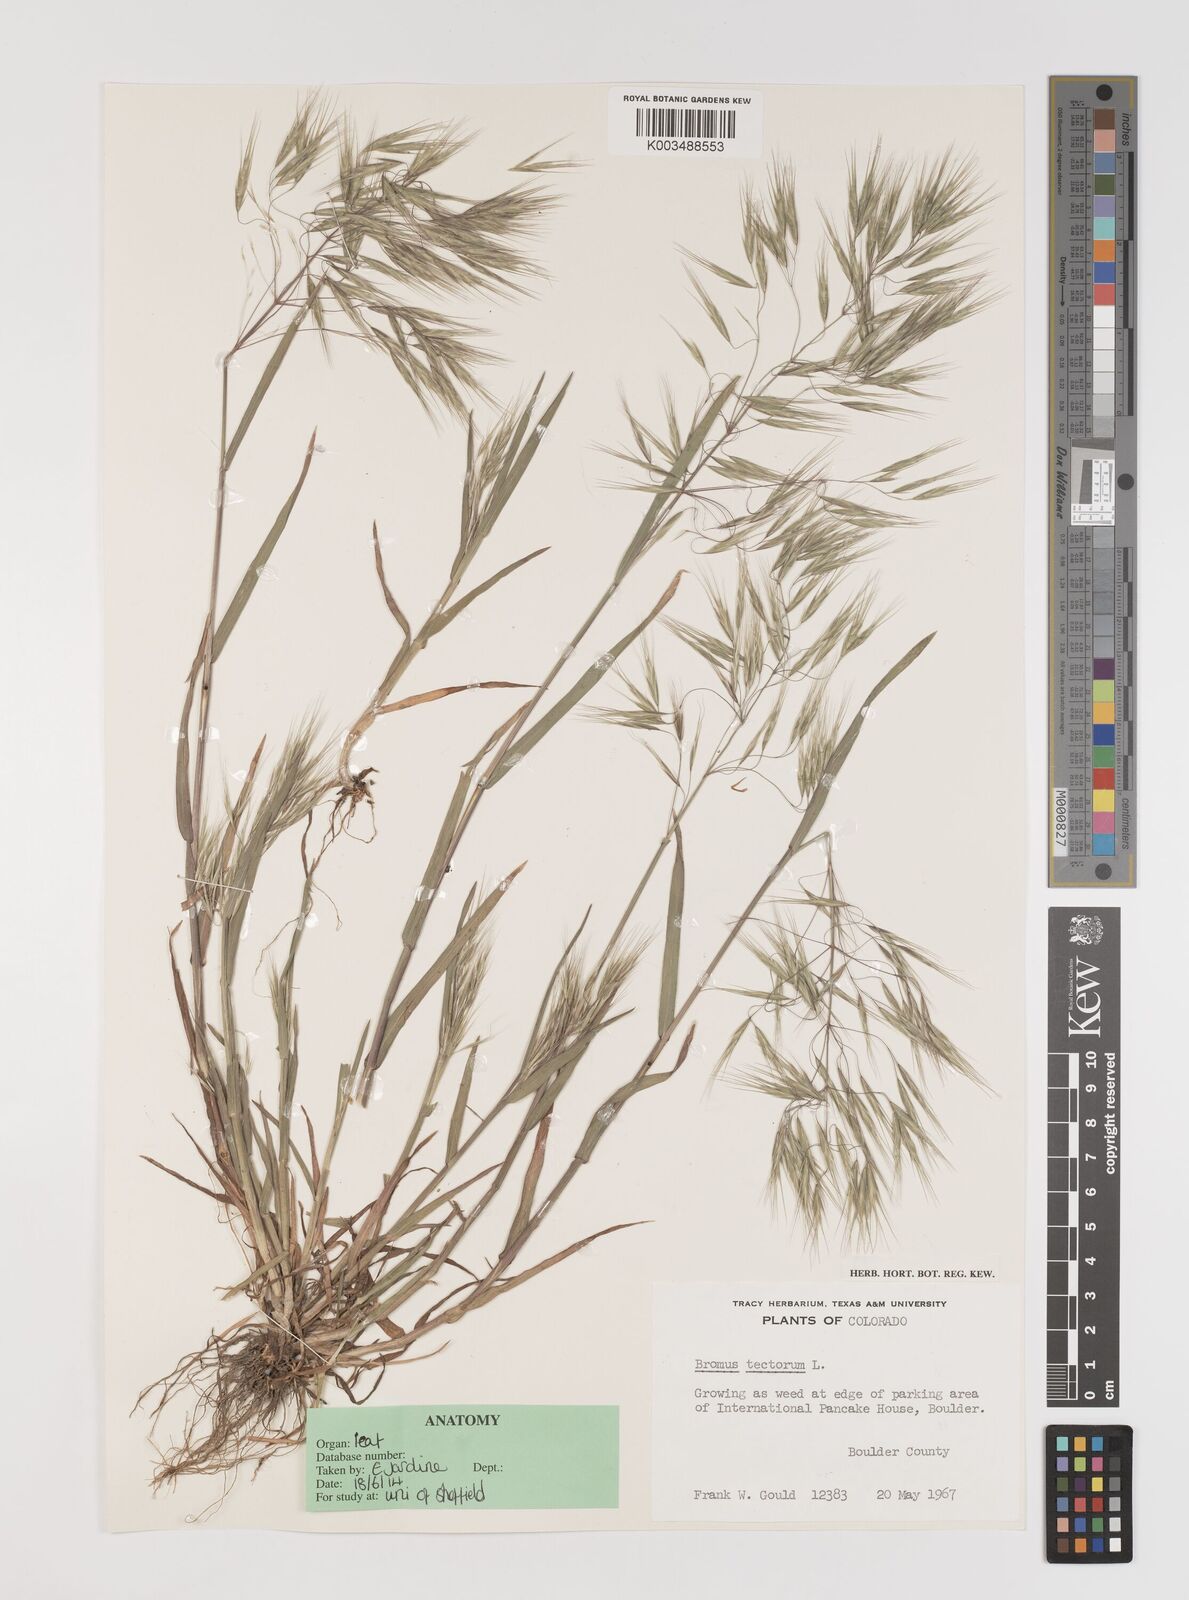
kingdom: Plantae
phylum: Tracheophyta
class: Liliopsida
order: Poales
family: Poaceae
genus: Bromus
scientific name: Bromus tectorum
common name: Cheatgrass
